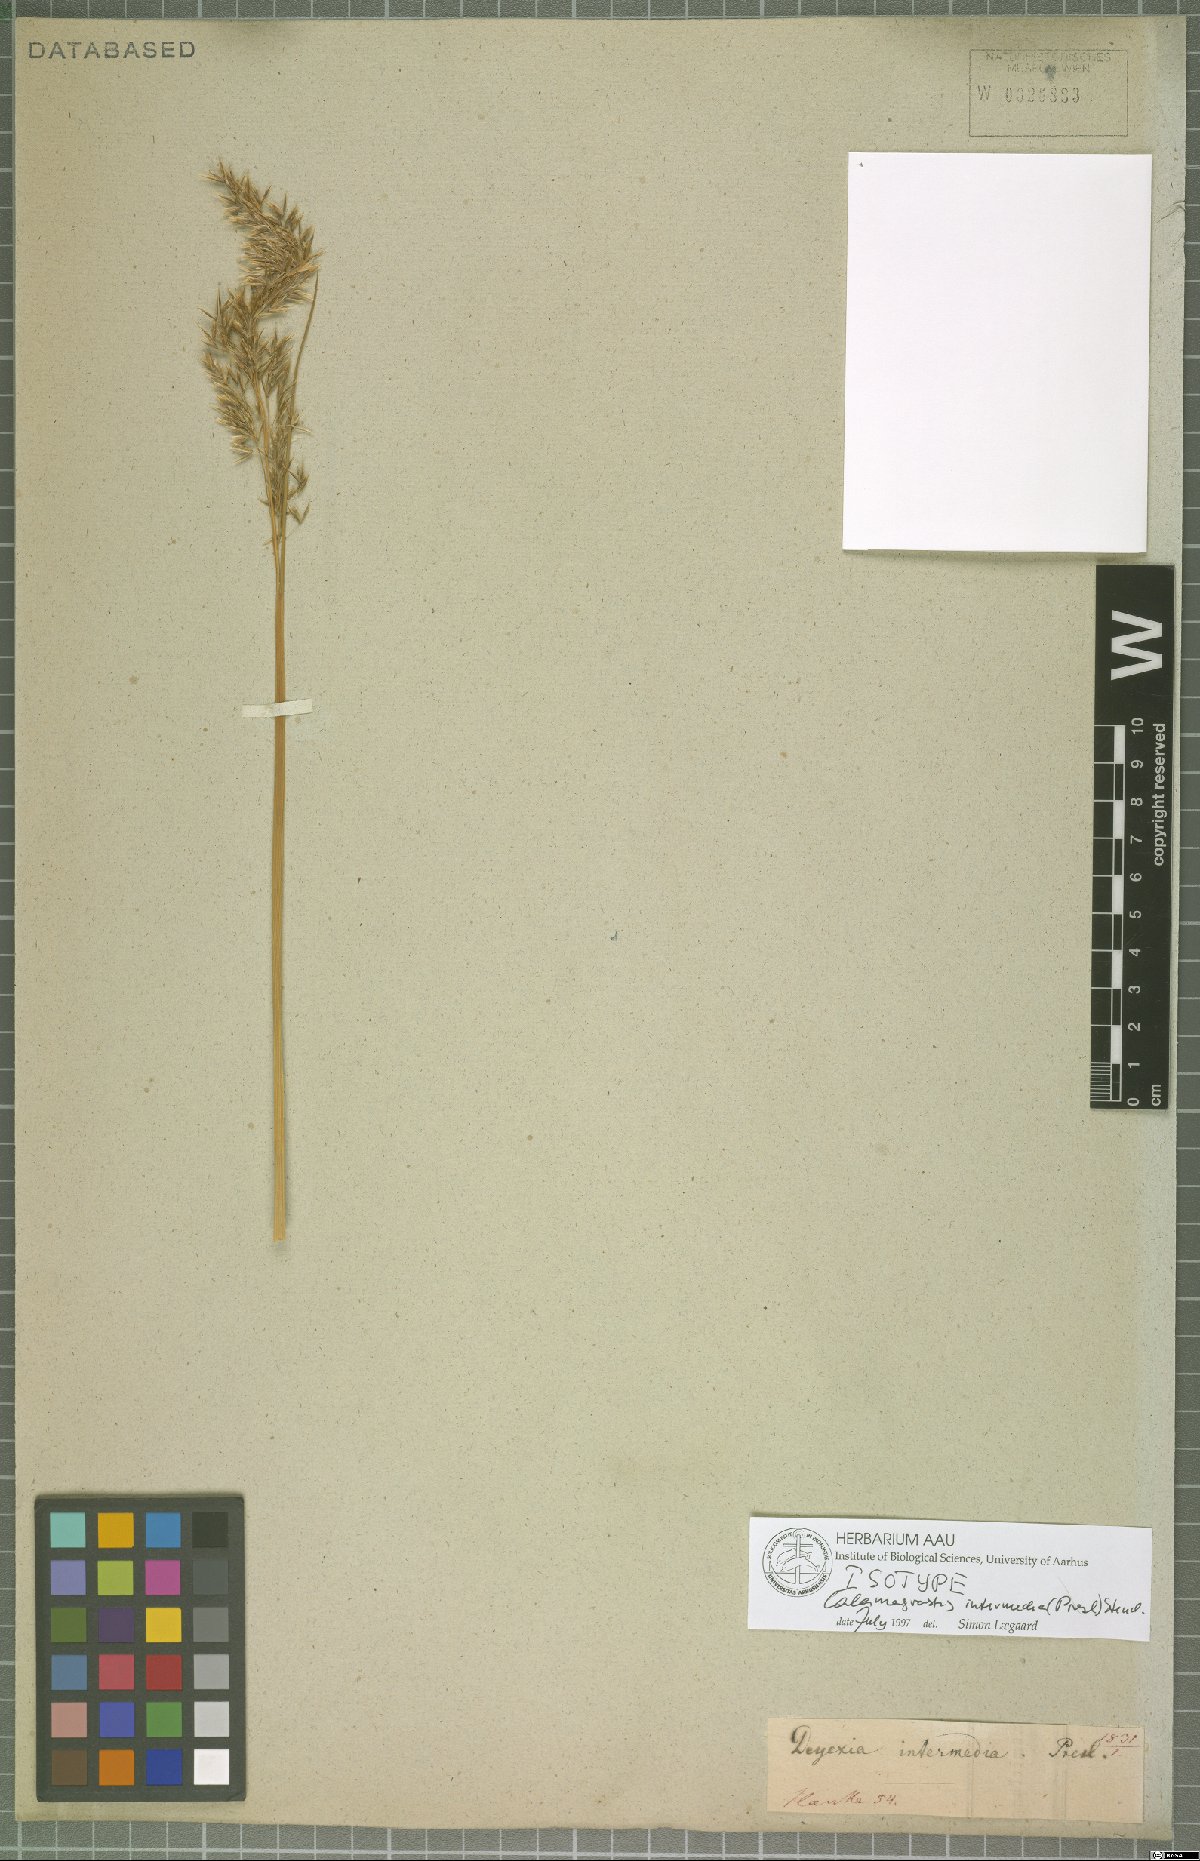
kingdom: Plantae
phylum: Tracheophyta
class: Liliopsida
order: Poales
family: Poaceae
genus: Cinnagrostis
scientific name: Cinnagrostis intermedia
